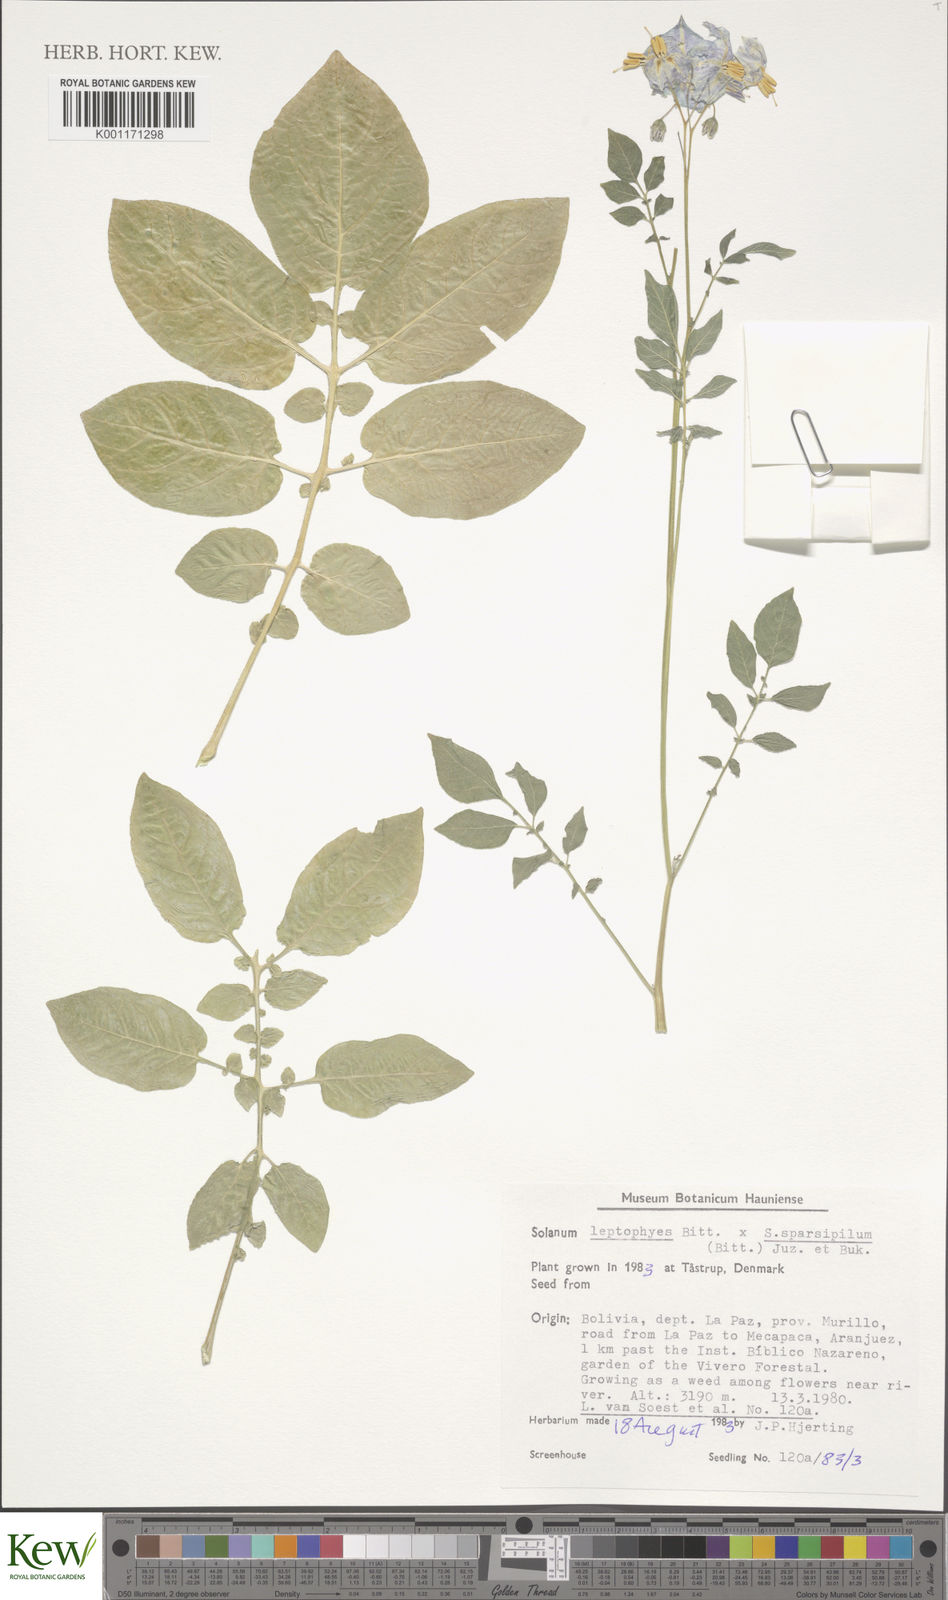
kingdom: Plantae
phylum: Tracheophyta
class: Magnoliopsida
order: Solanales
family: Solanaceae
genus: Solanum
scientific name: Solanum brevicaule
